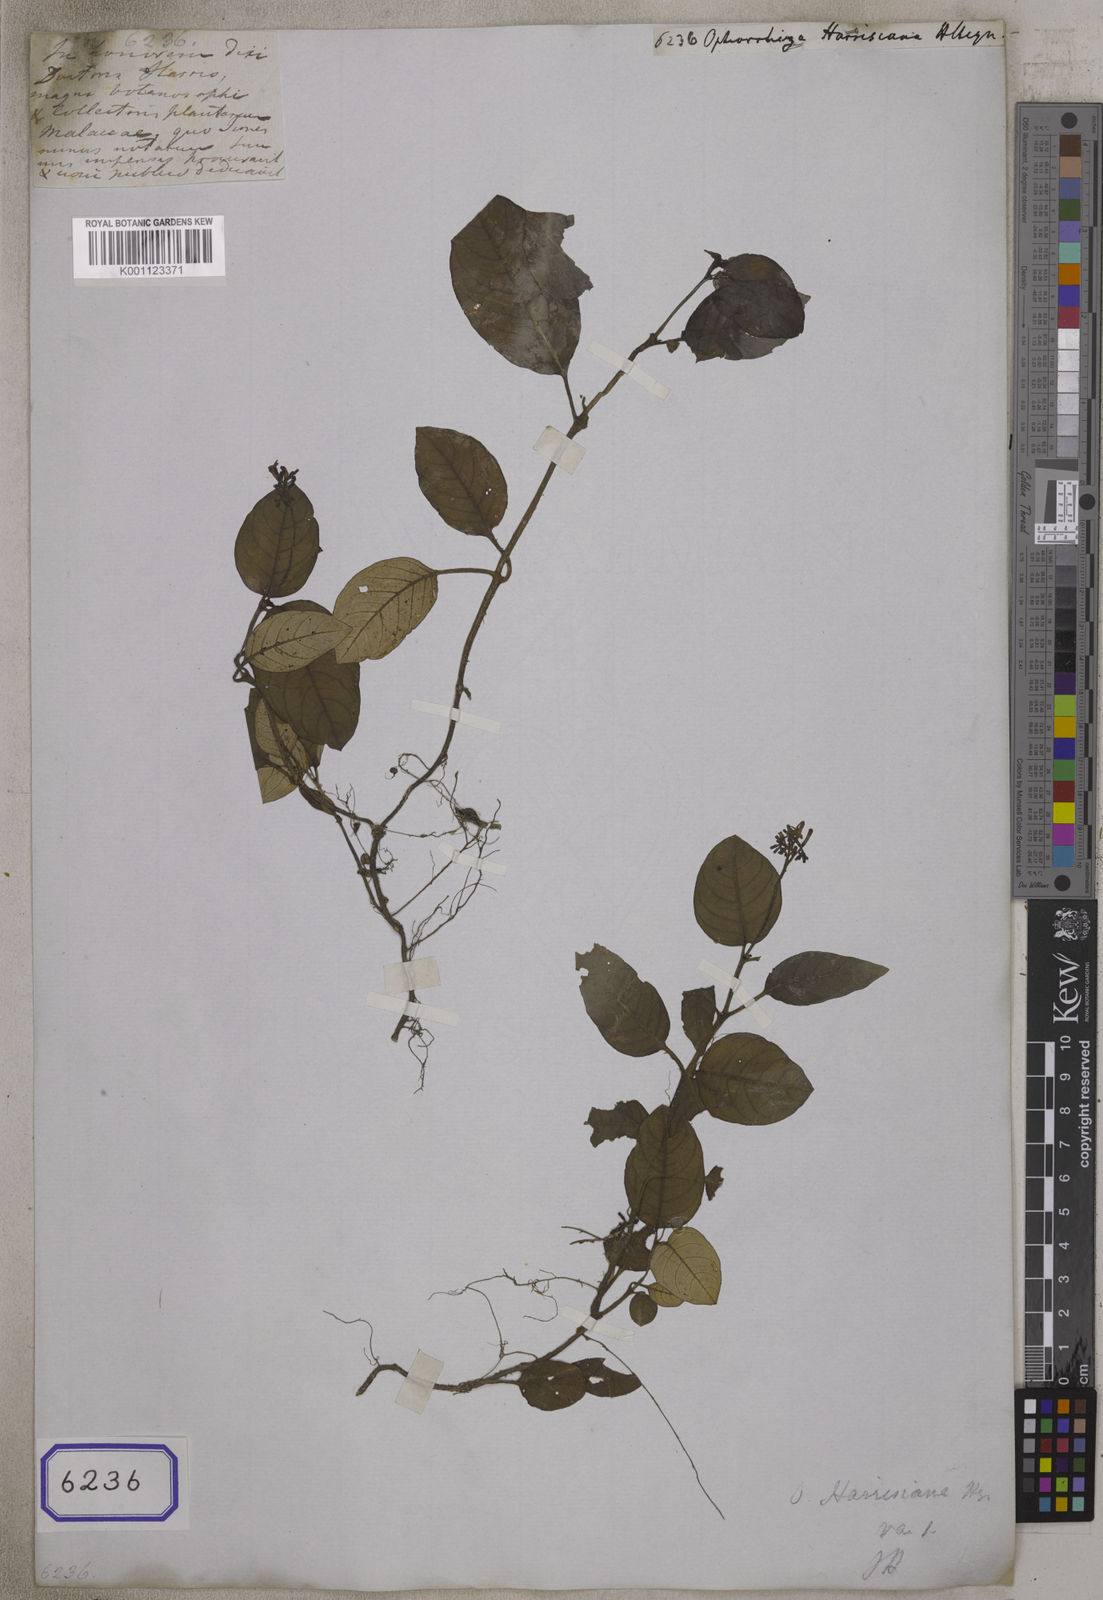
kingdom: Plantae
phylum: Tracheophyta
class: Magnoliopsida
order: Gentianales
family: Rubiaceae
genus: Ophiorrhiza
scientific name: Ophiorrhiza
